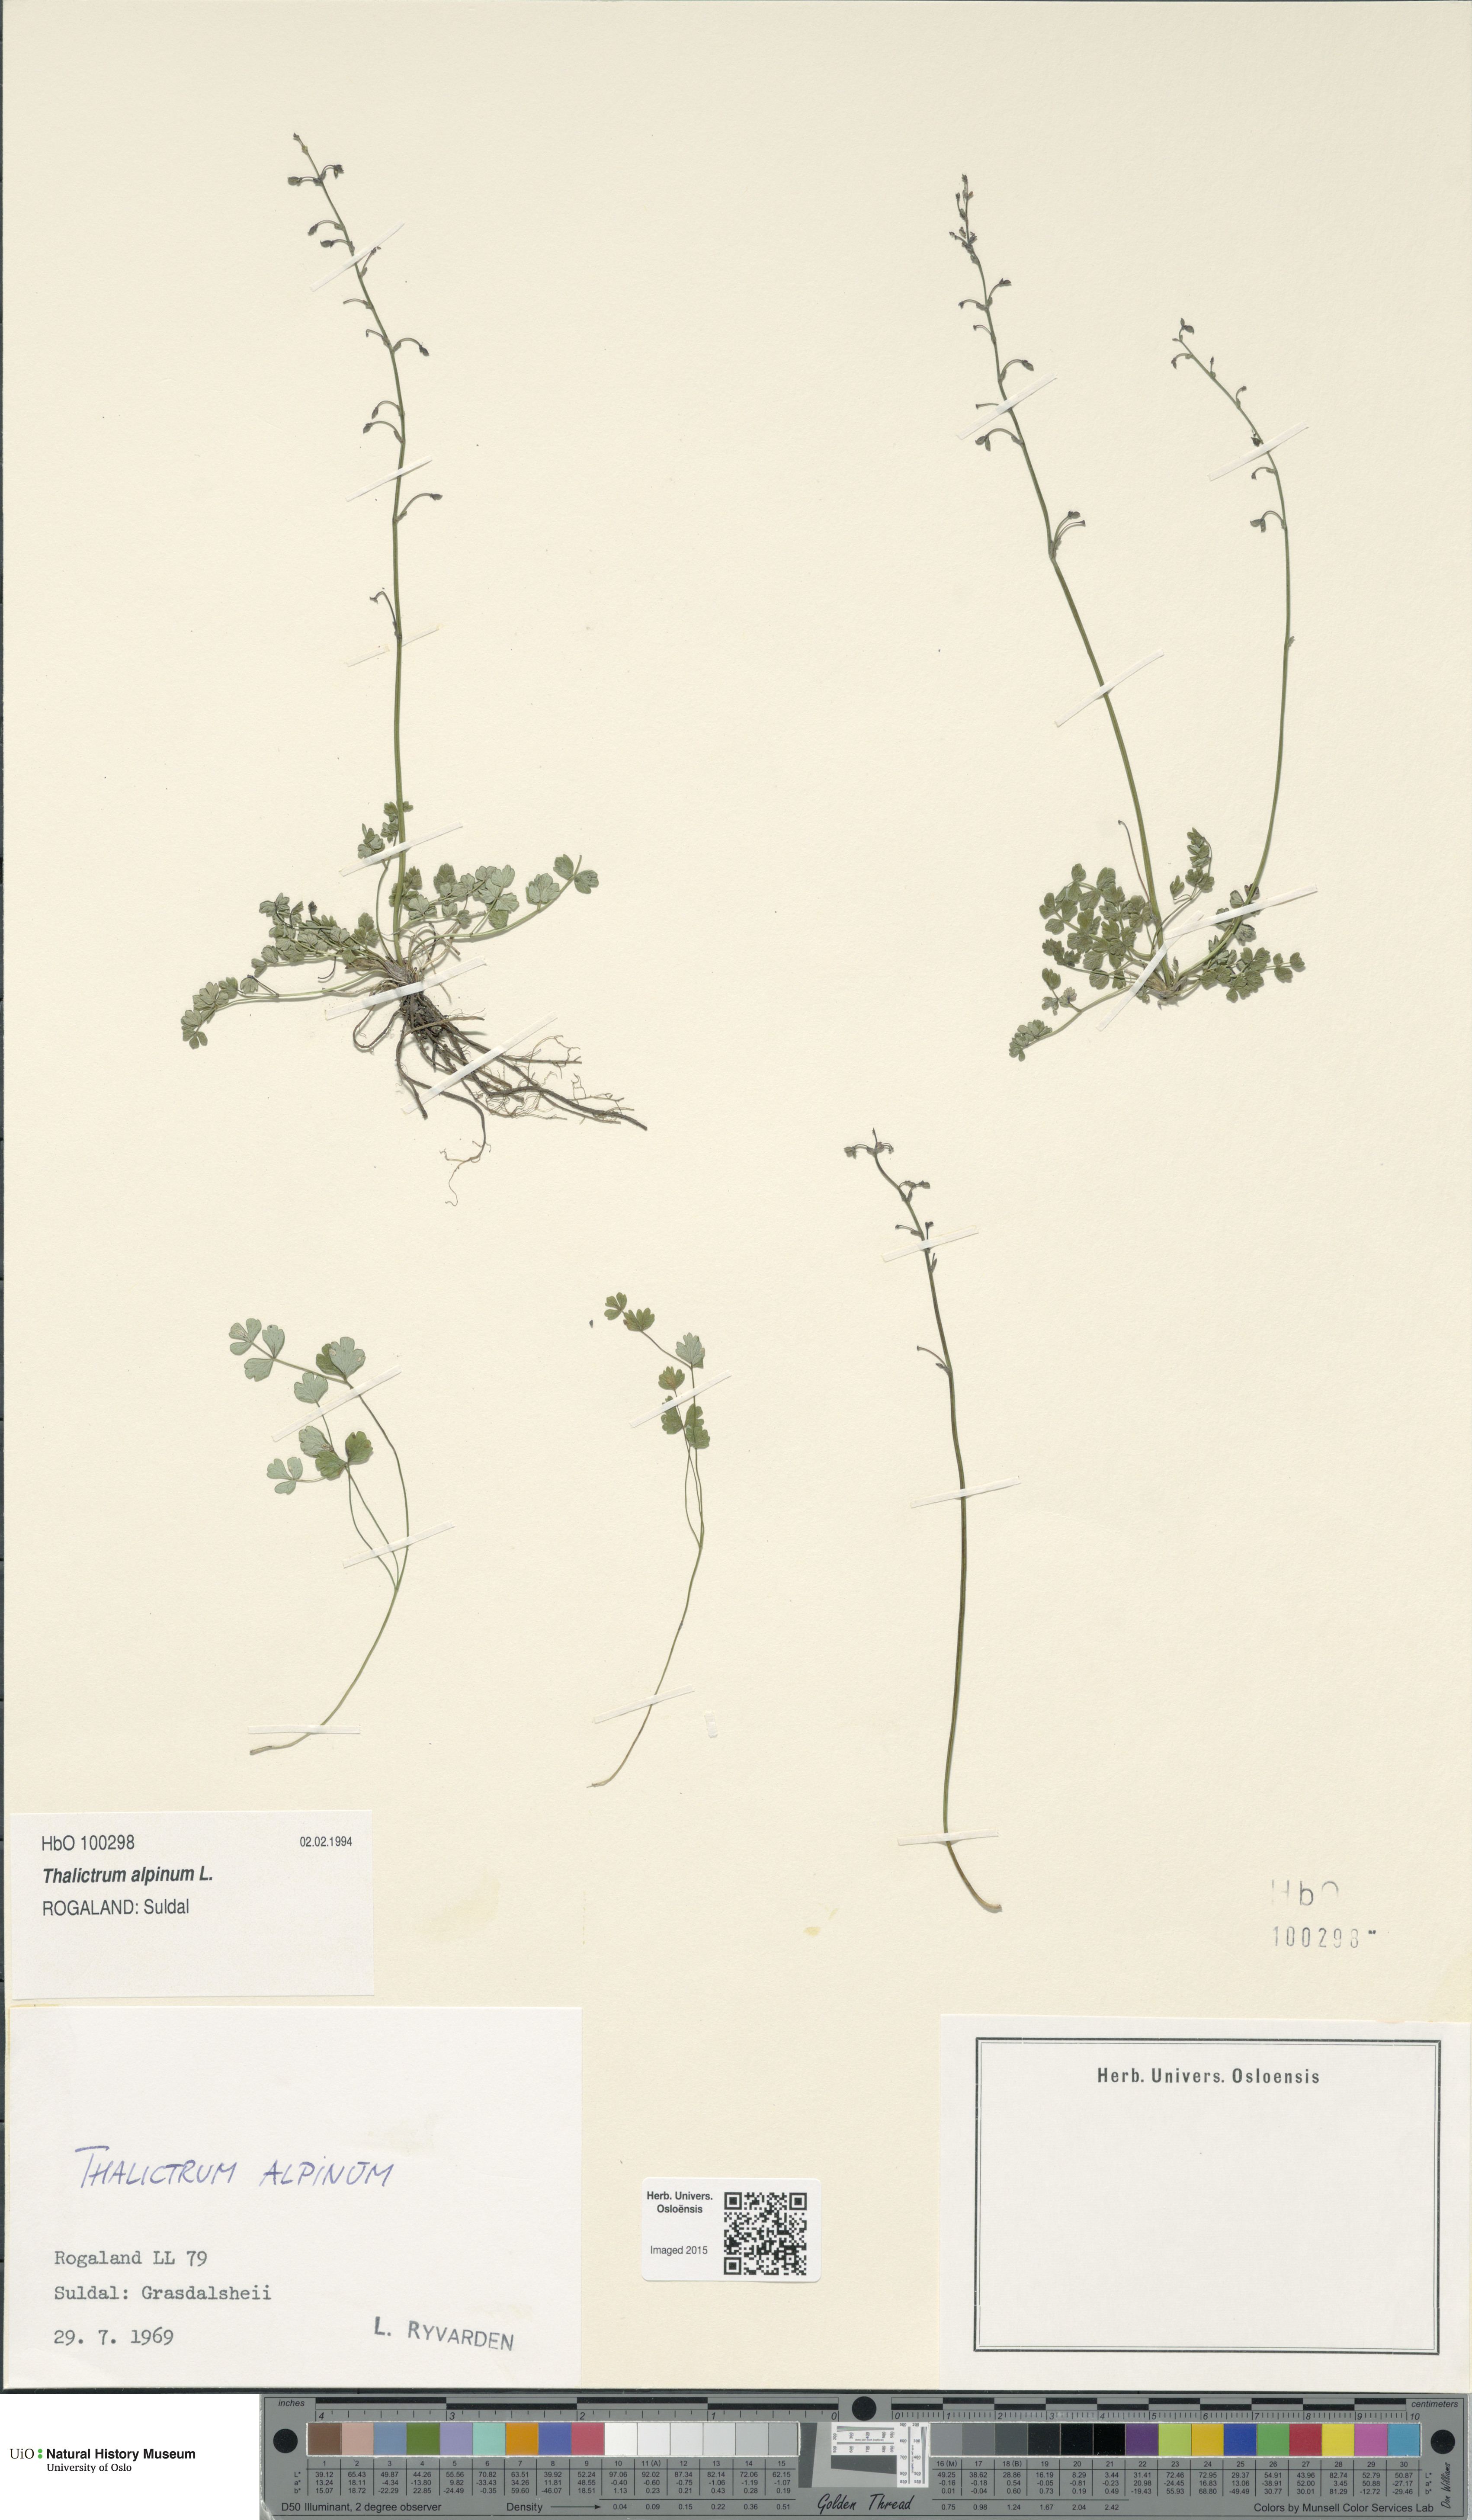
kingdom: Plantae
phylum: Tracheophyta
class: Magnoliopsida
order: Ranunculales
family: Ranunculaceae
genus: Thalictrum
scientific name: Thalictrum alpinum
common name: Alpine meadow-rue
